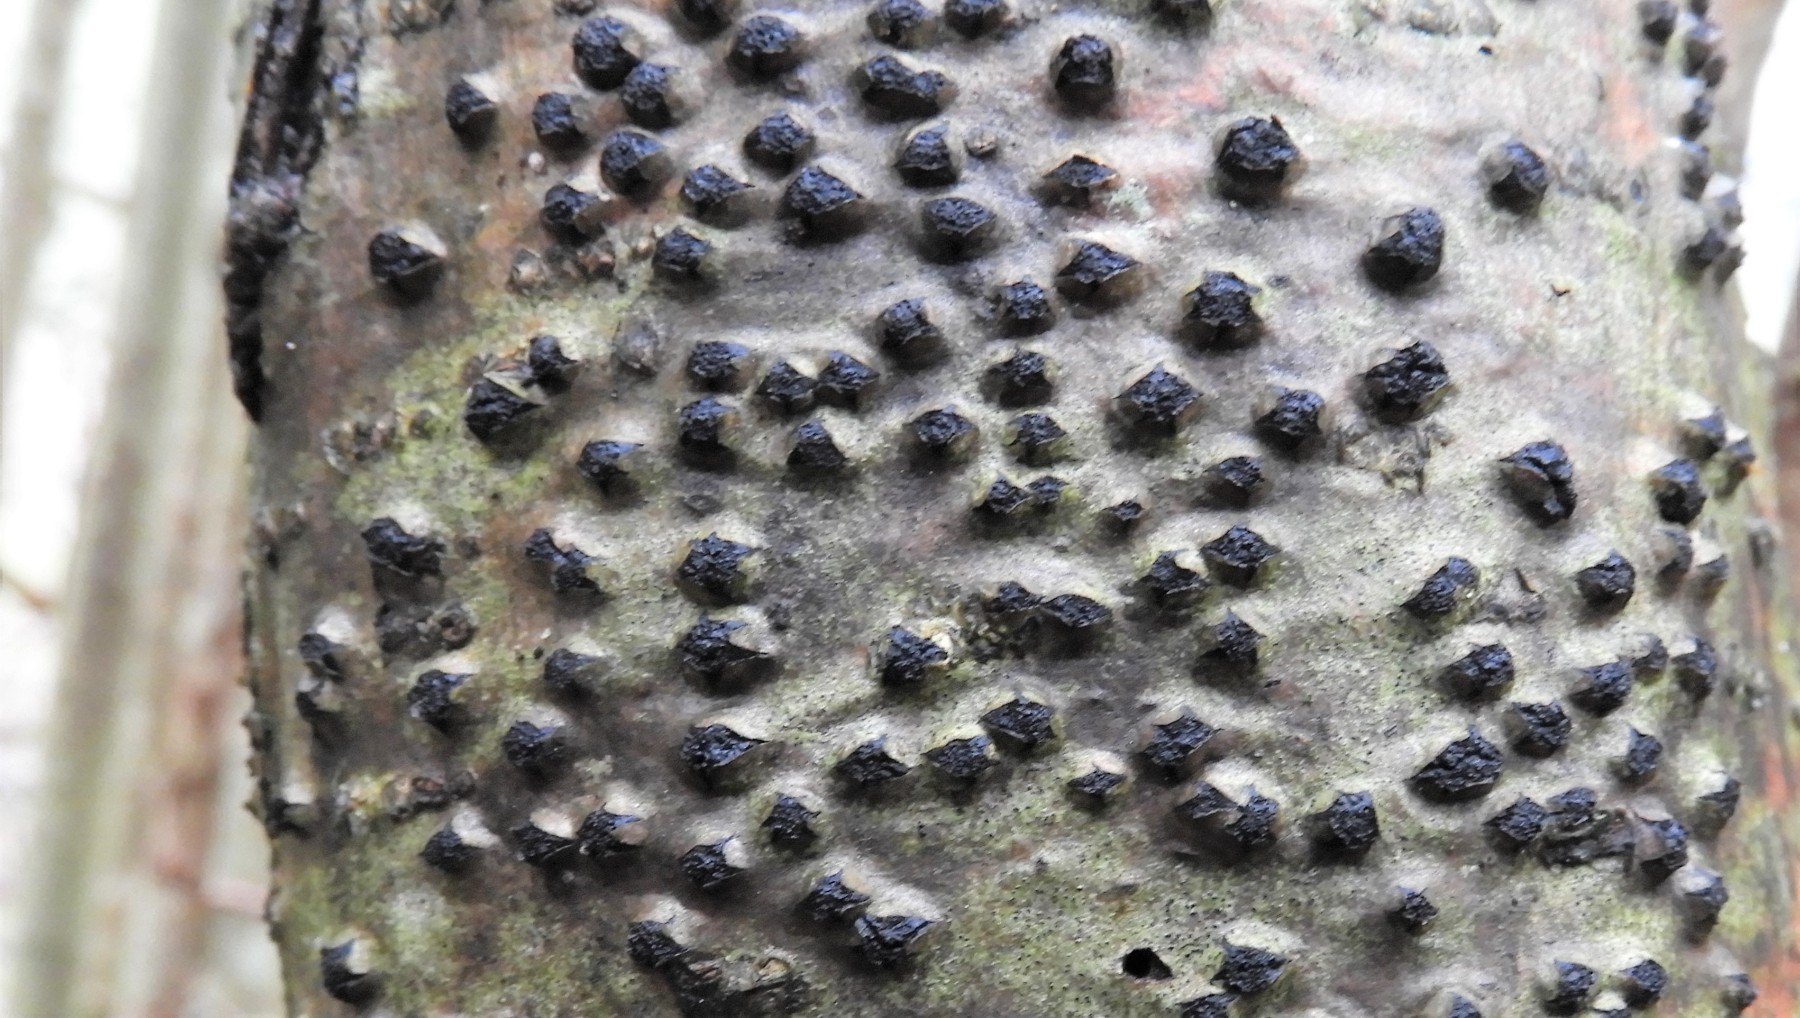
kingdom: Fungi
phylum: Ascomycota
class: Sordariomycetes
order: Xylariales
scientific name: Xylariales
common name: stødsvampordenen
